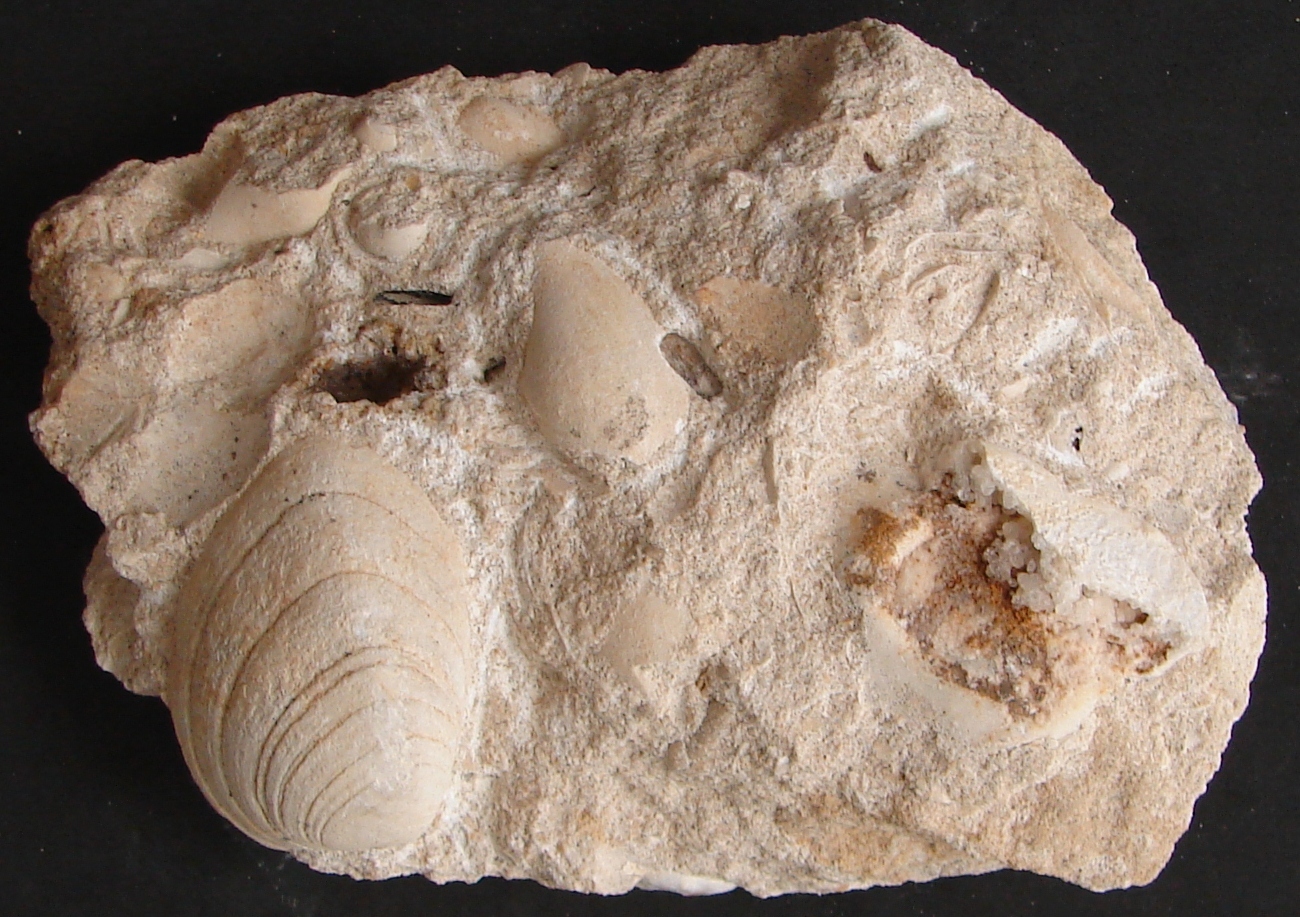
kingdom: Animalia
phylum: Mollusca
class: Bivalvia
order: Carditida
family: Cardiniidae
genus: Cardinia
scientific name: Cardinia
